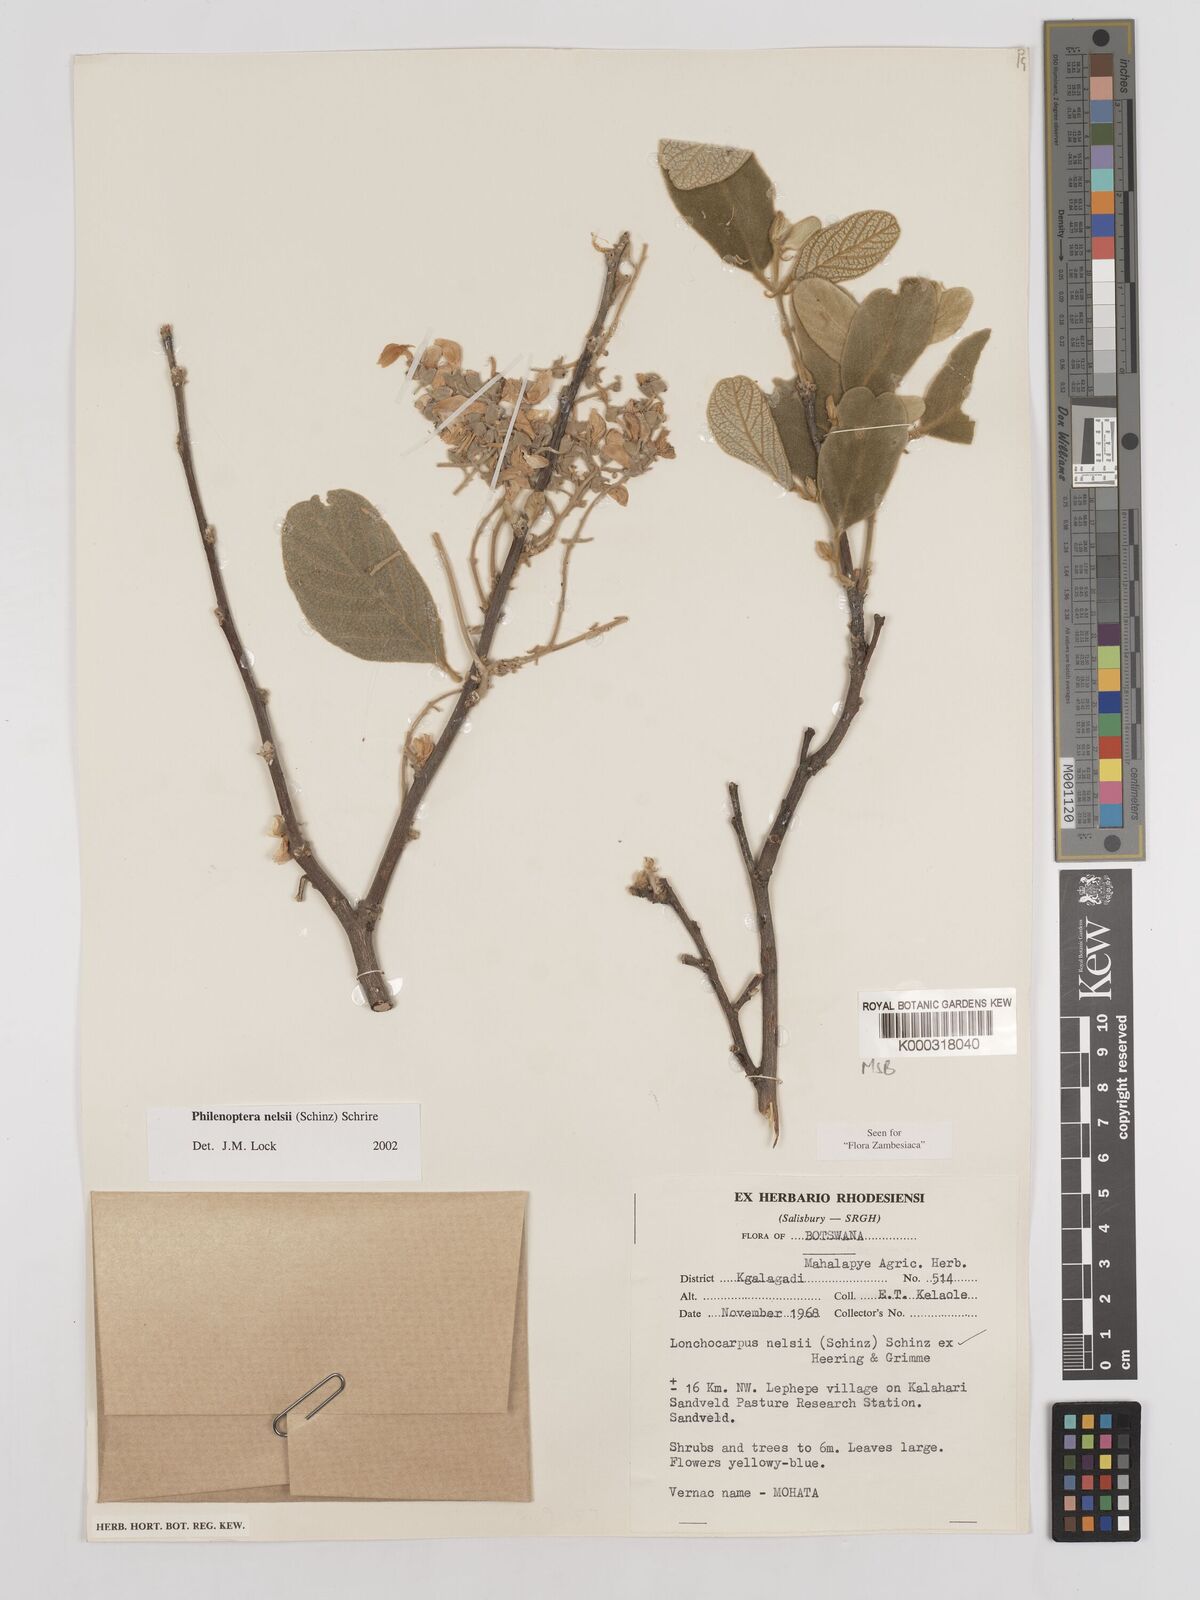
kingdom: Plantae
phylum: Tracheophyta
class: Magnoliopsida
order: Fabales
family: Fabaceae
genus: Philenoptera
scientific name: Philenoptera nelsii
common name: Kalahari apple-leaf
